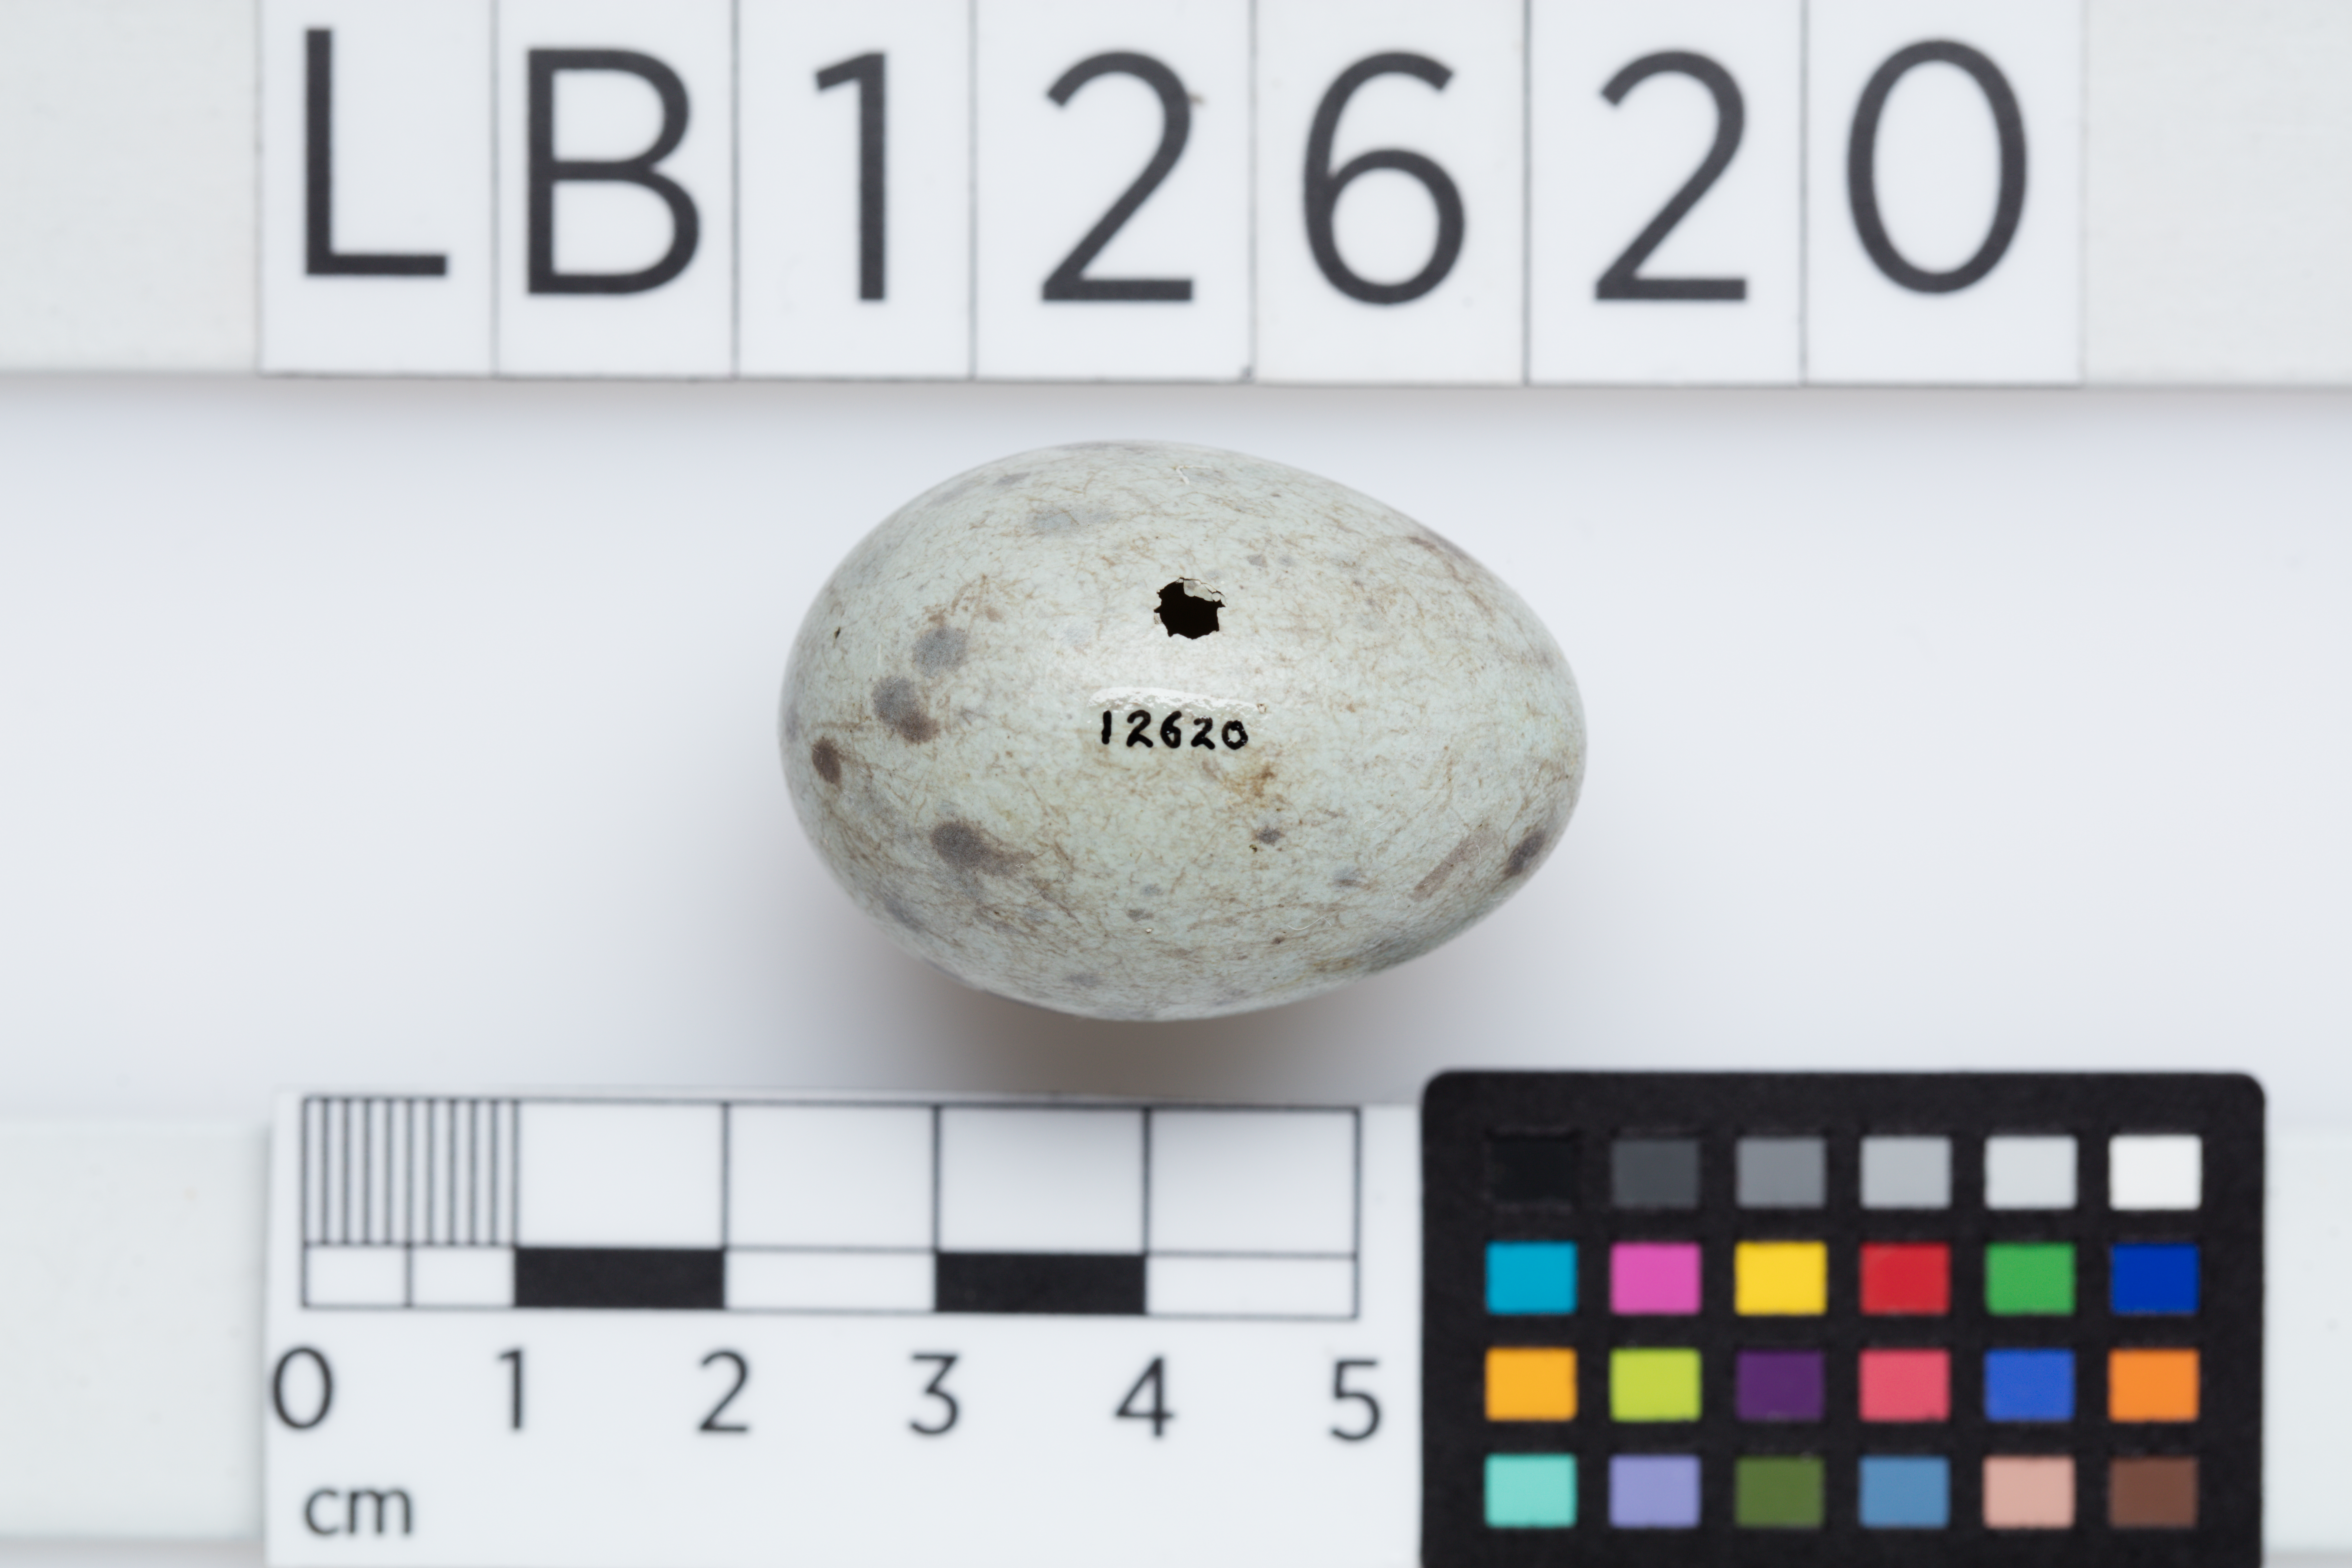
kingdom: Animalia
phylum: Chordata
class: Aves
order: Passeriformes
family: Cracticidae
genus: Gymnorhina
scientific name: Gymnorhina tibicen
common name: Australian magpie
